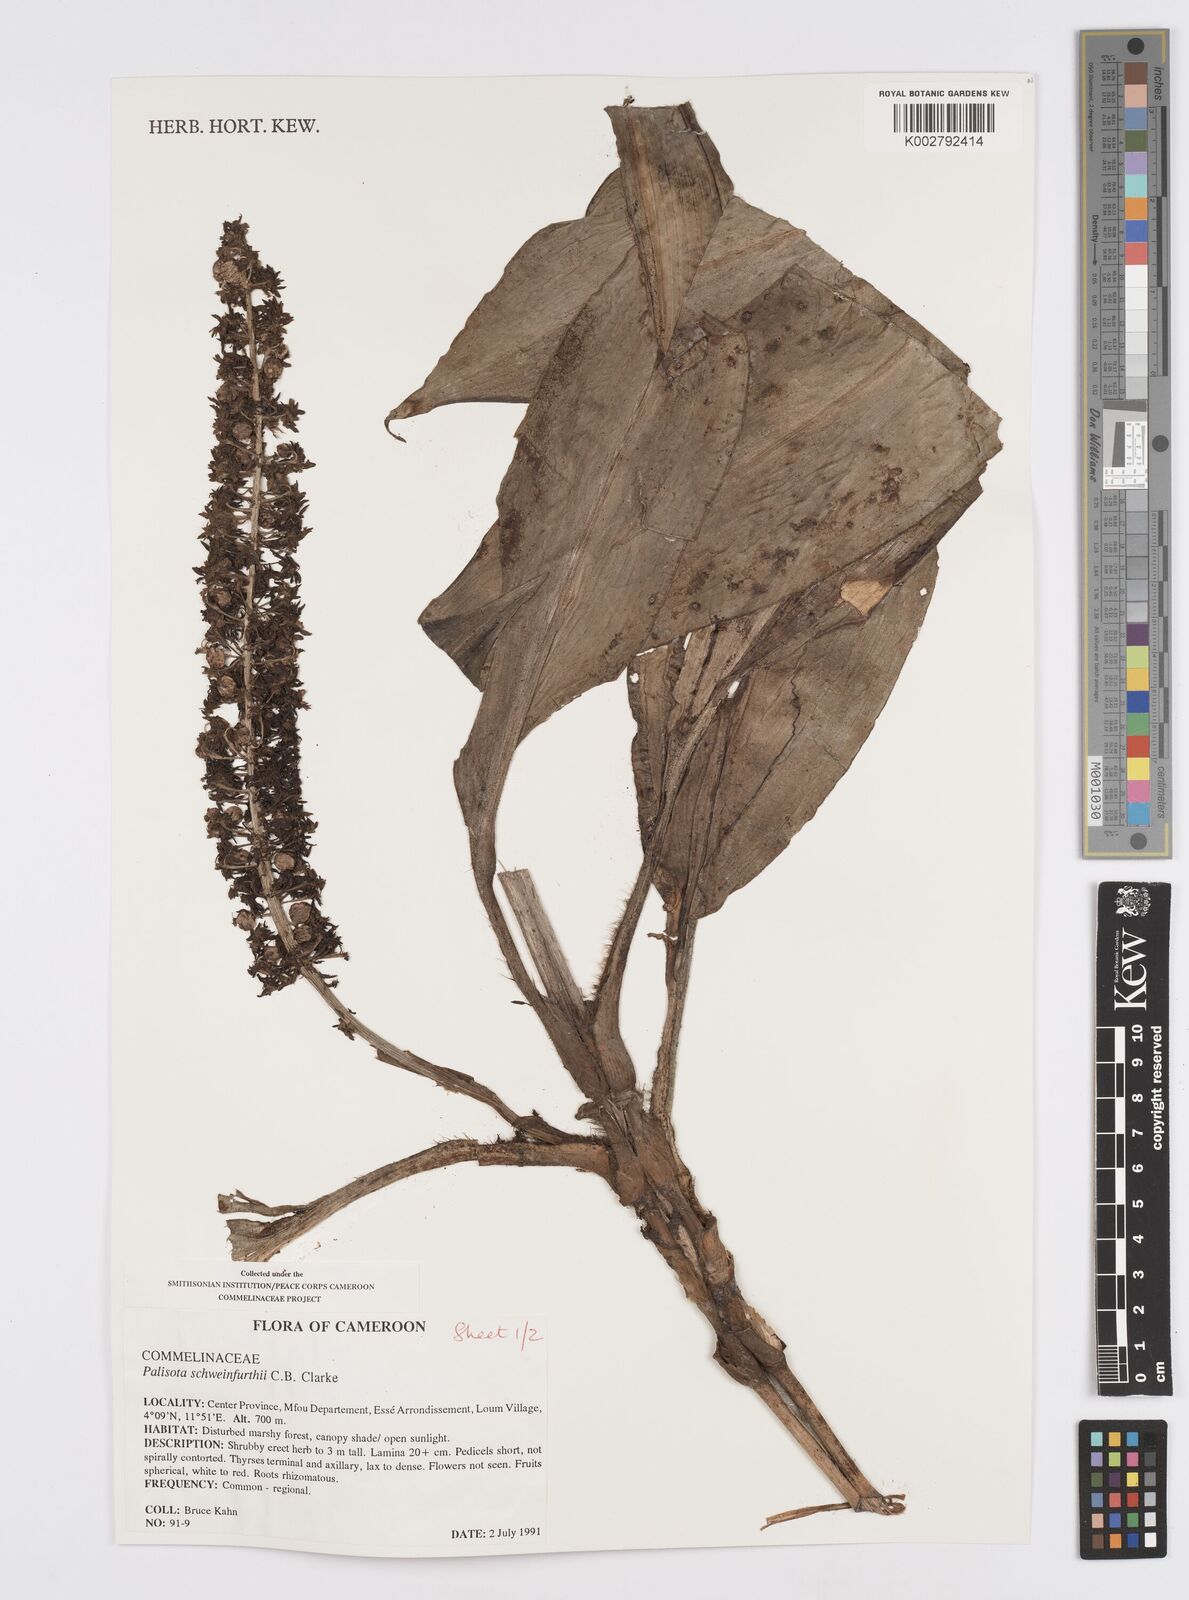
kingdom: Plantae
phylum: Tracheophyta
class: Liliopsida
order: Commelinales
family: Commelinaceae
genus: Palisota
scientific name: Palisota schweinfurthii
